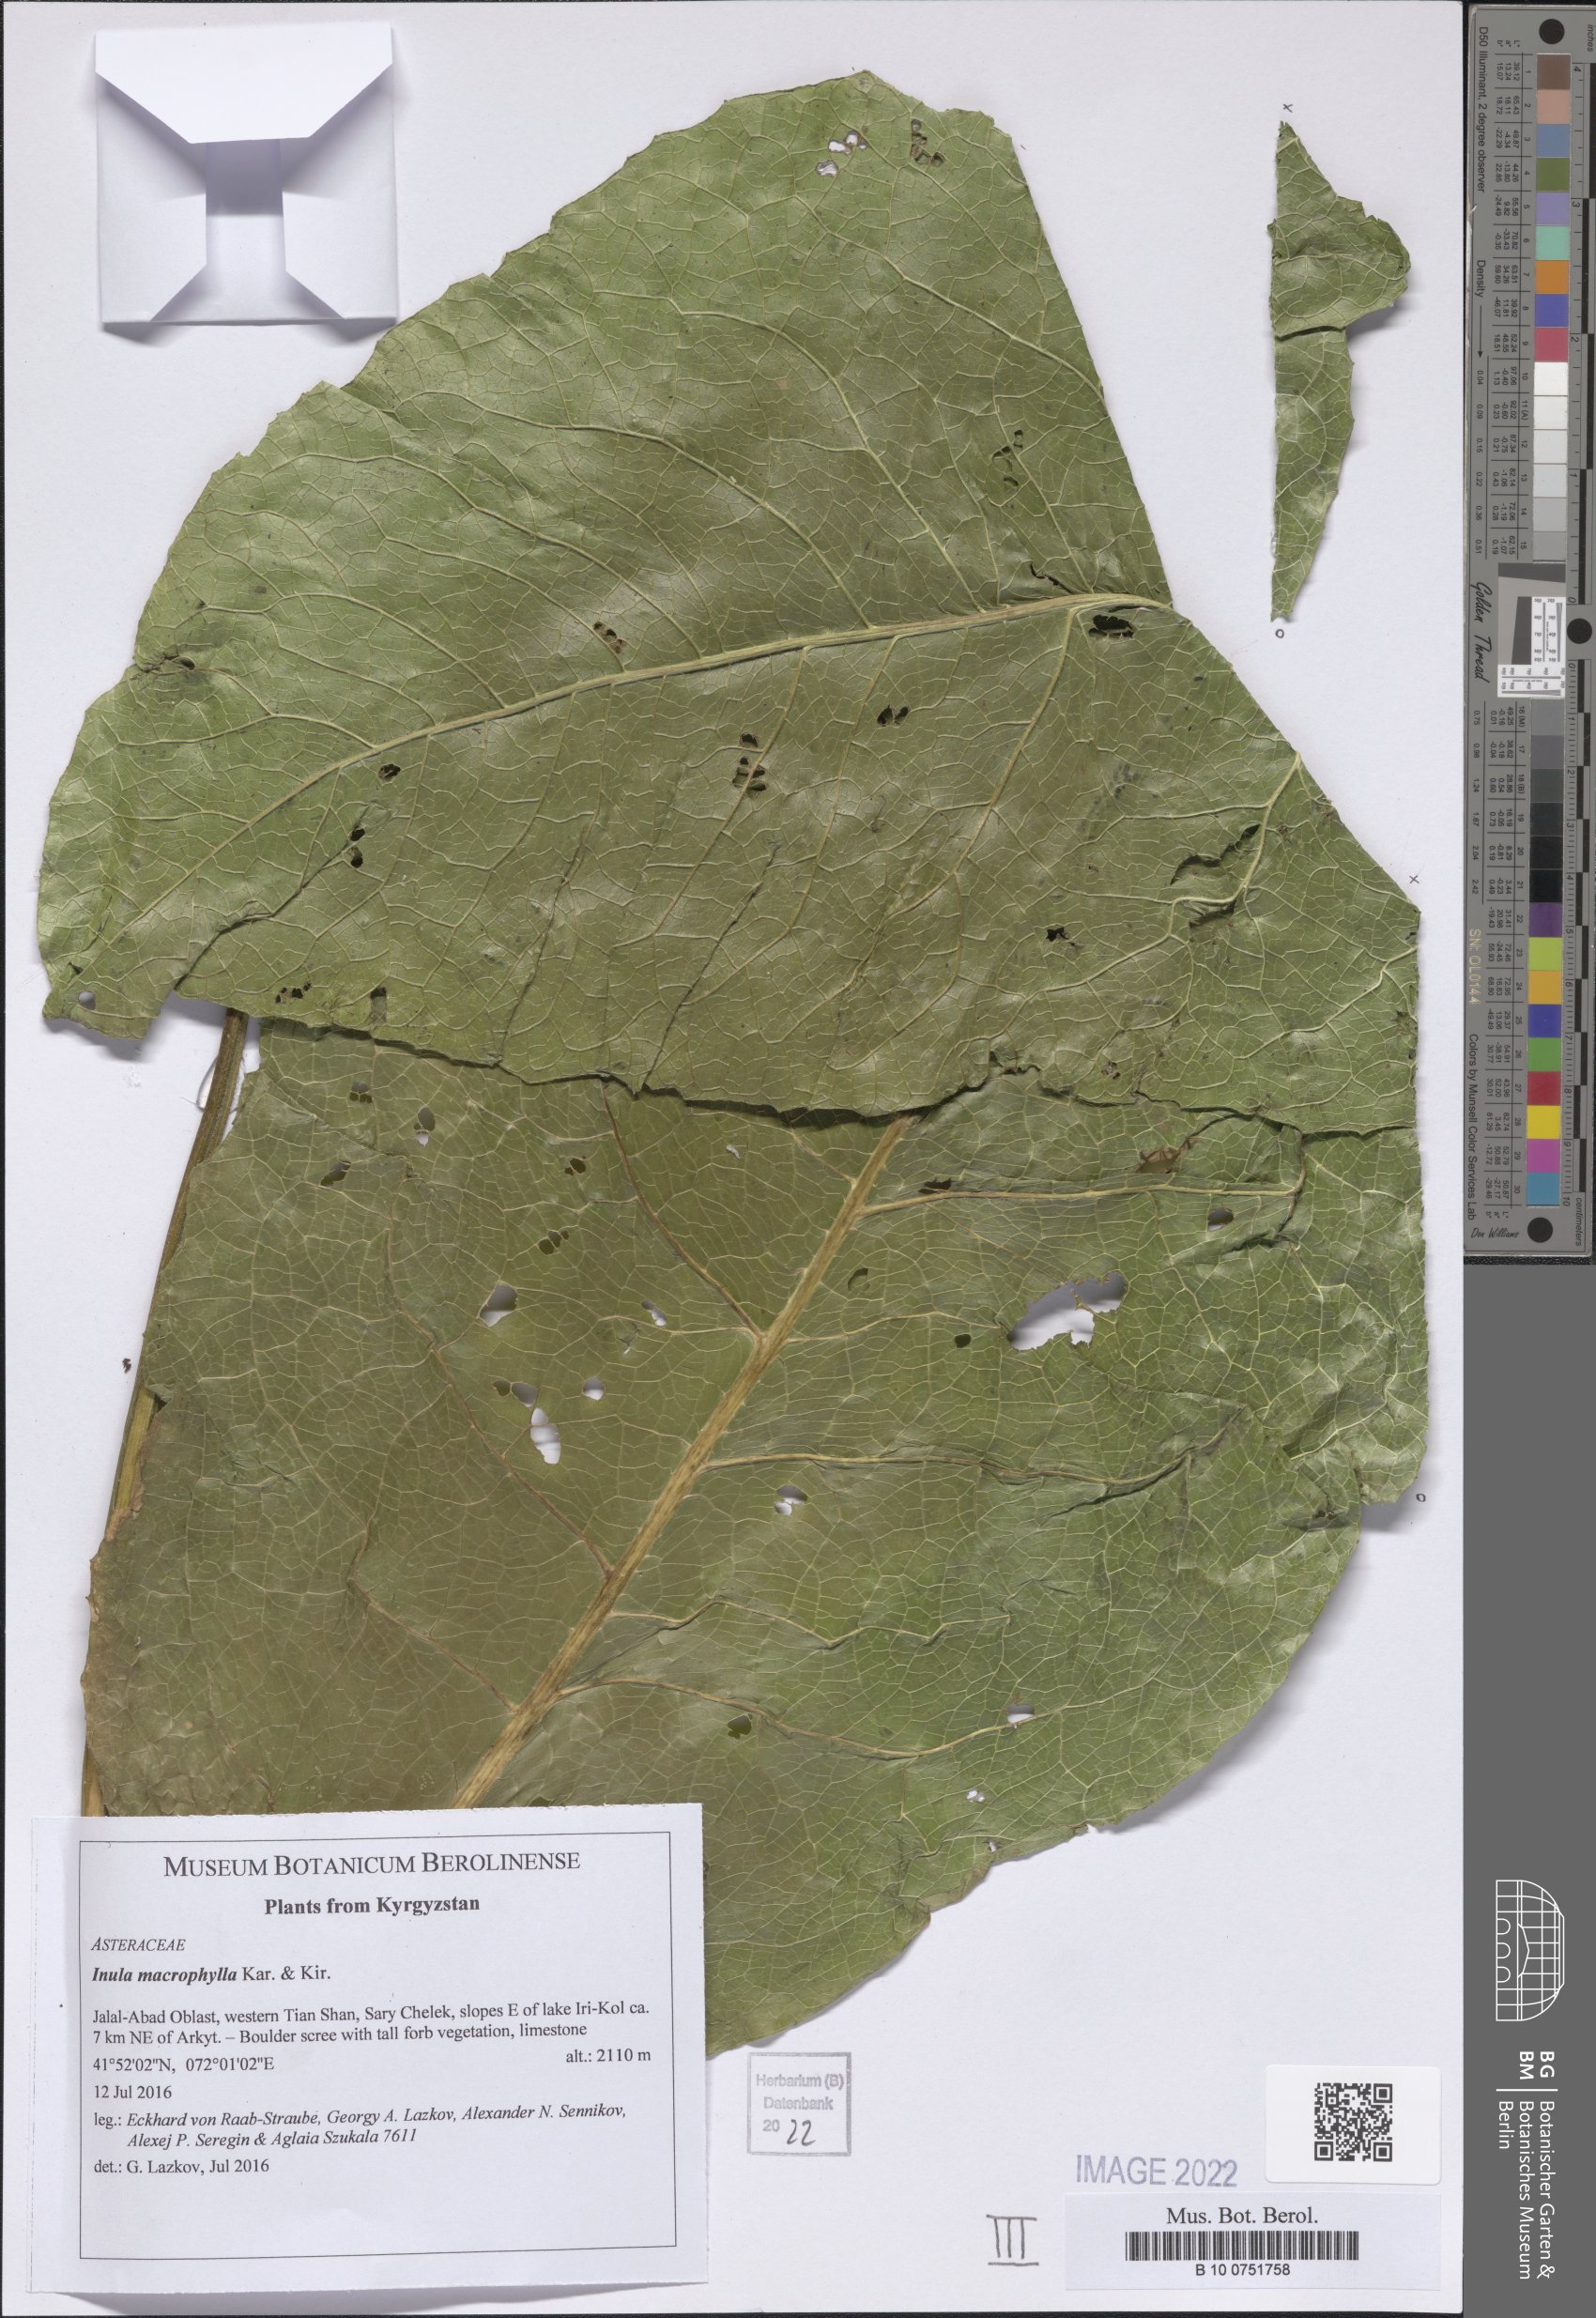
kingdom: Plantae
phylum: Tracheophyta
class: Magnoliopsida
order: Asterales
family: Asteraceae
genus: Inula
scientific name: Inula grandis
